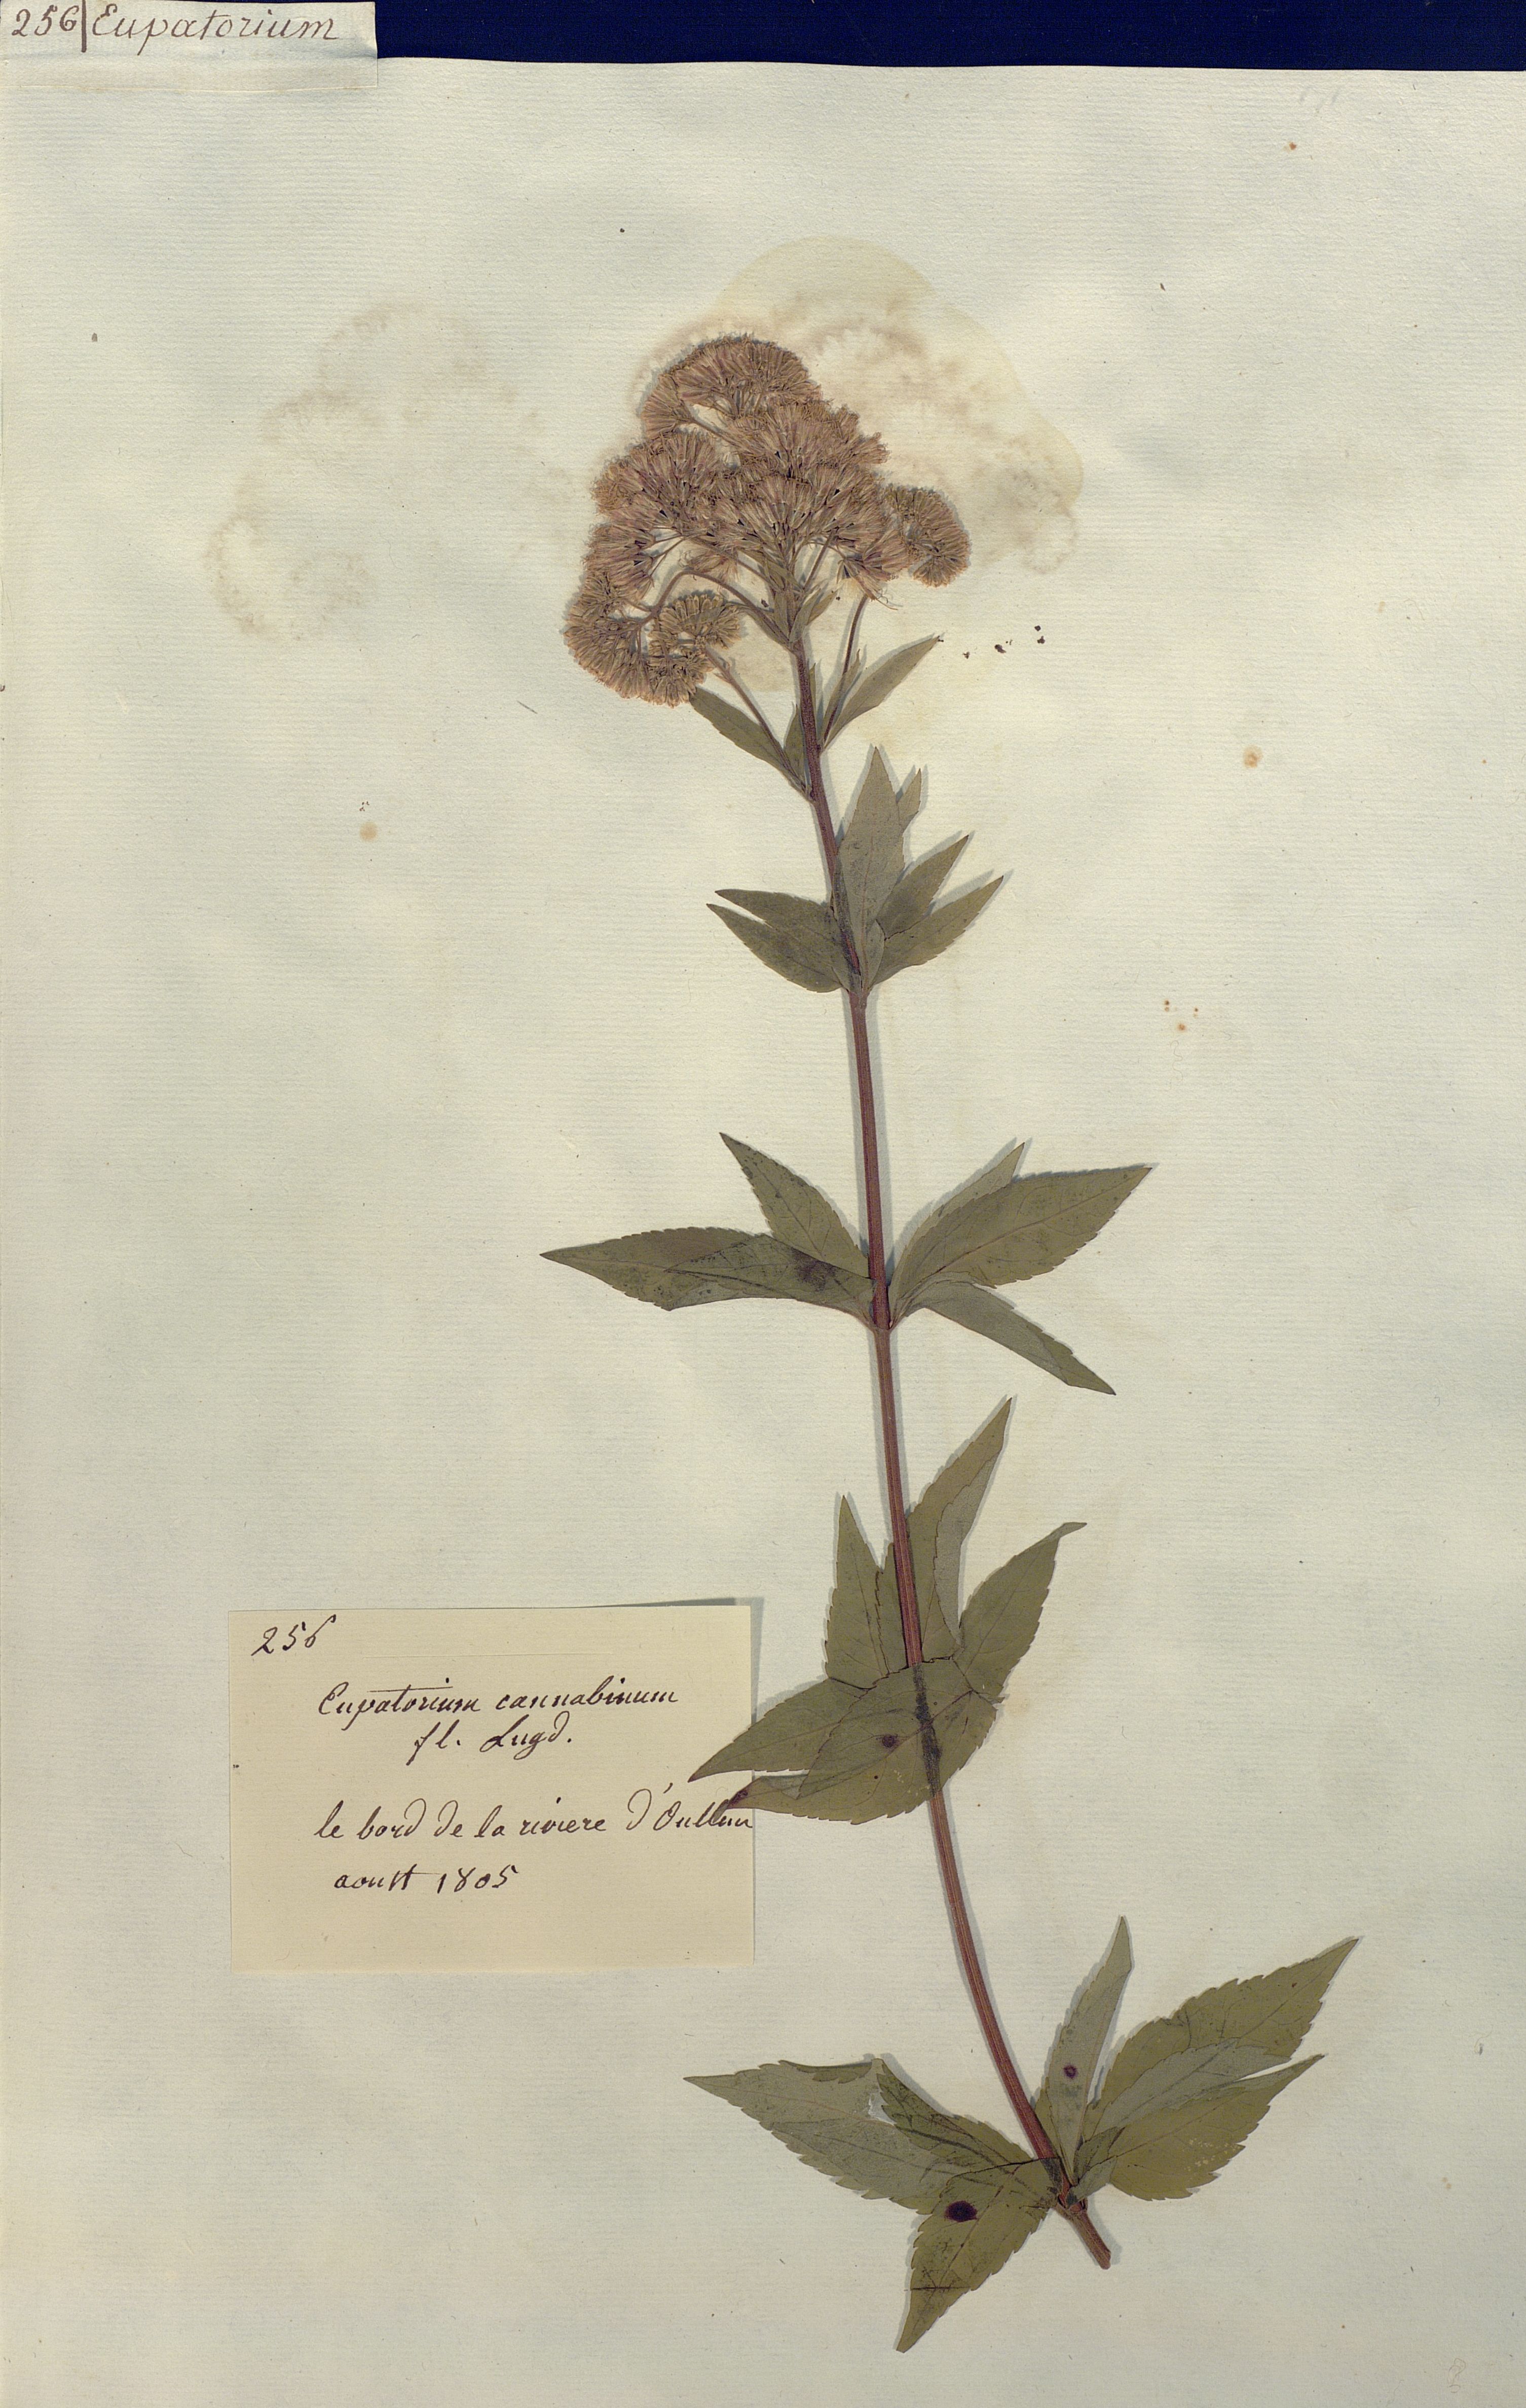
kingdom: Plantae
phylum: Tracheophyta
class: Magnoliopsida
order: Asterales
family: Asteraceae
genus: Eupatorium
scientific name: Eupatorium cannabinum
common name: Hemp-agrimony
